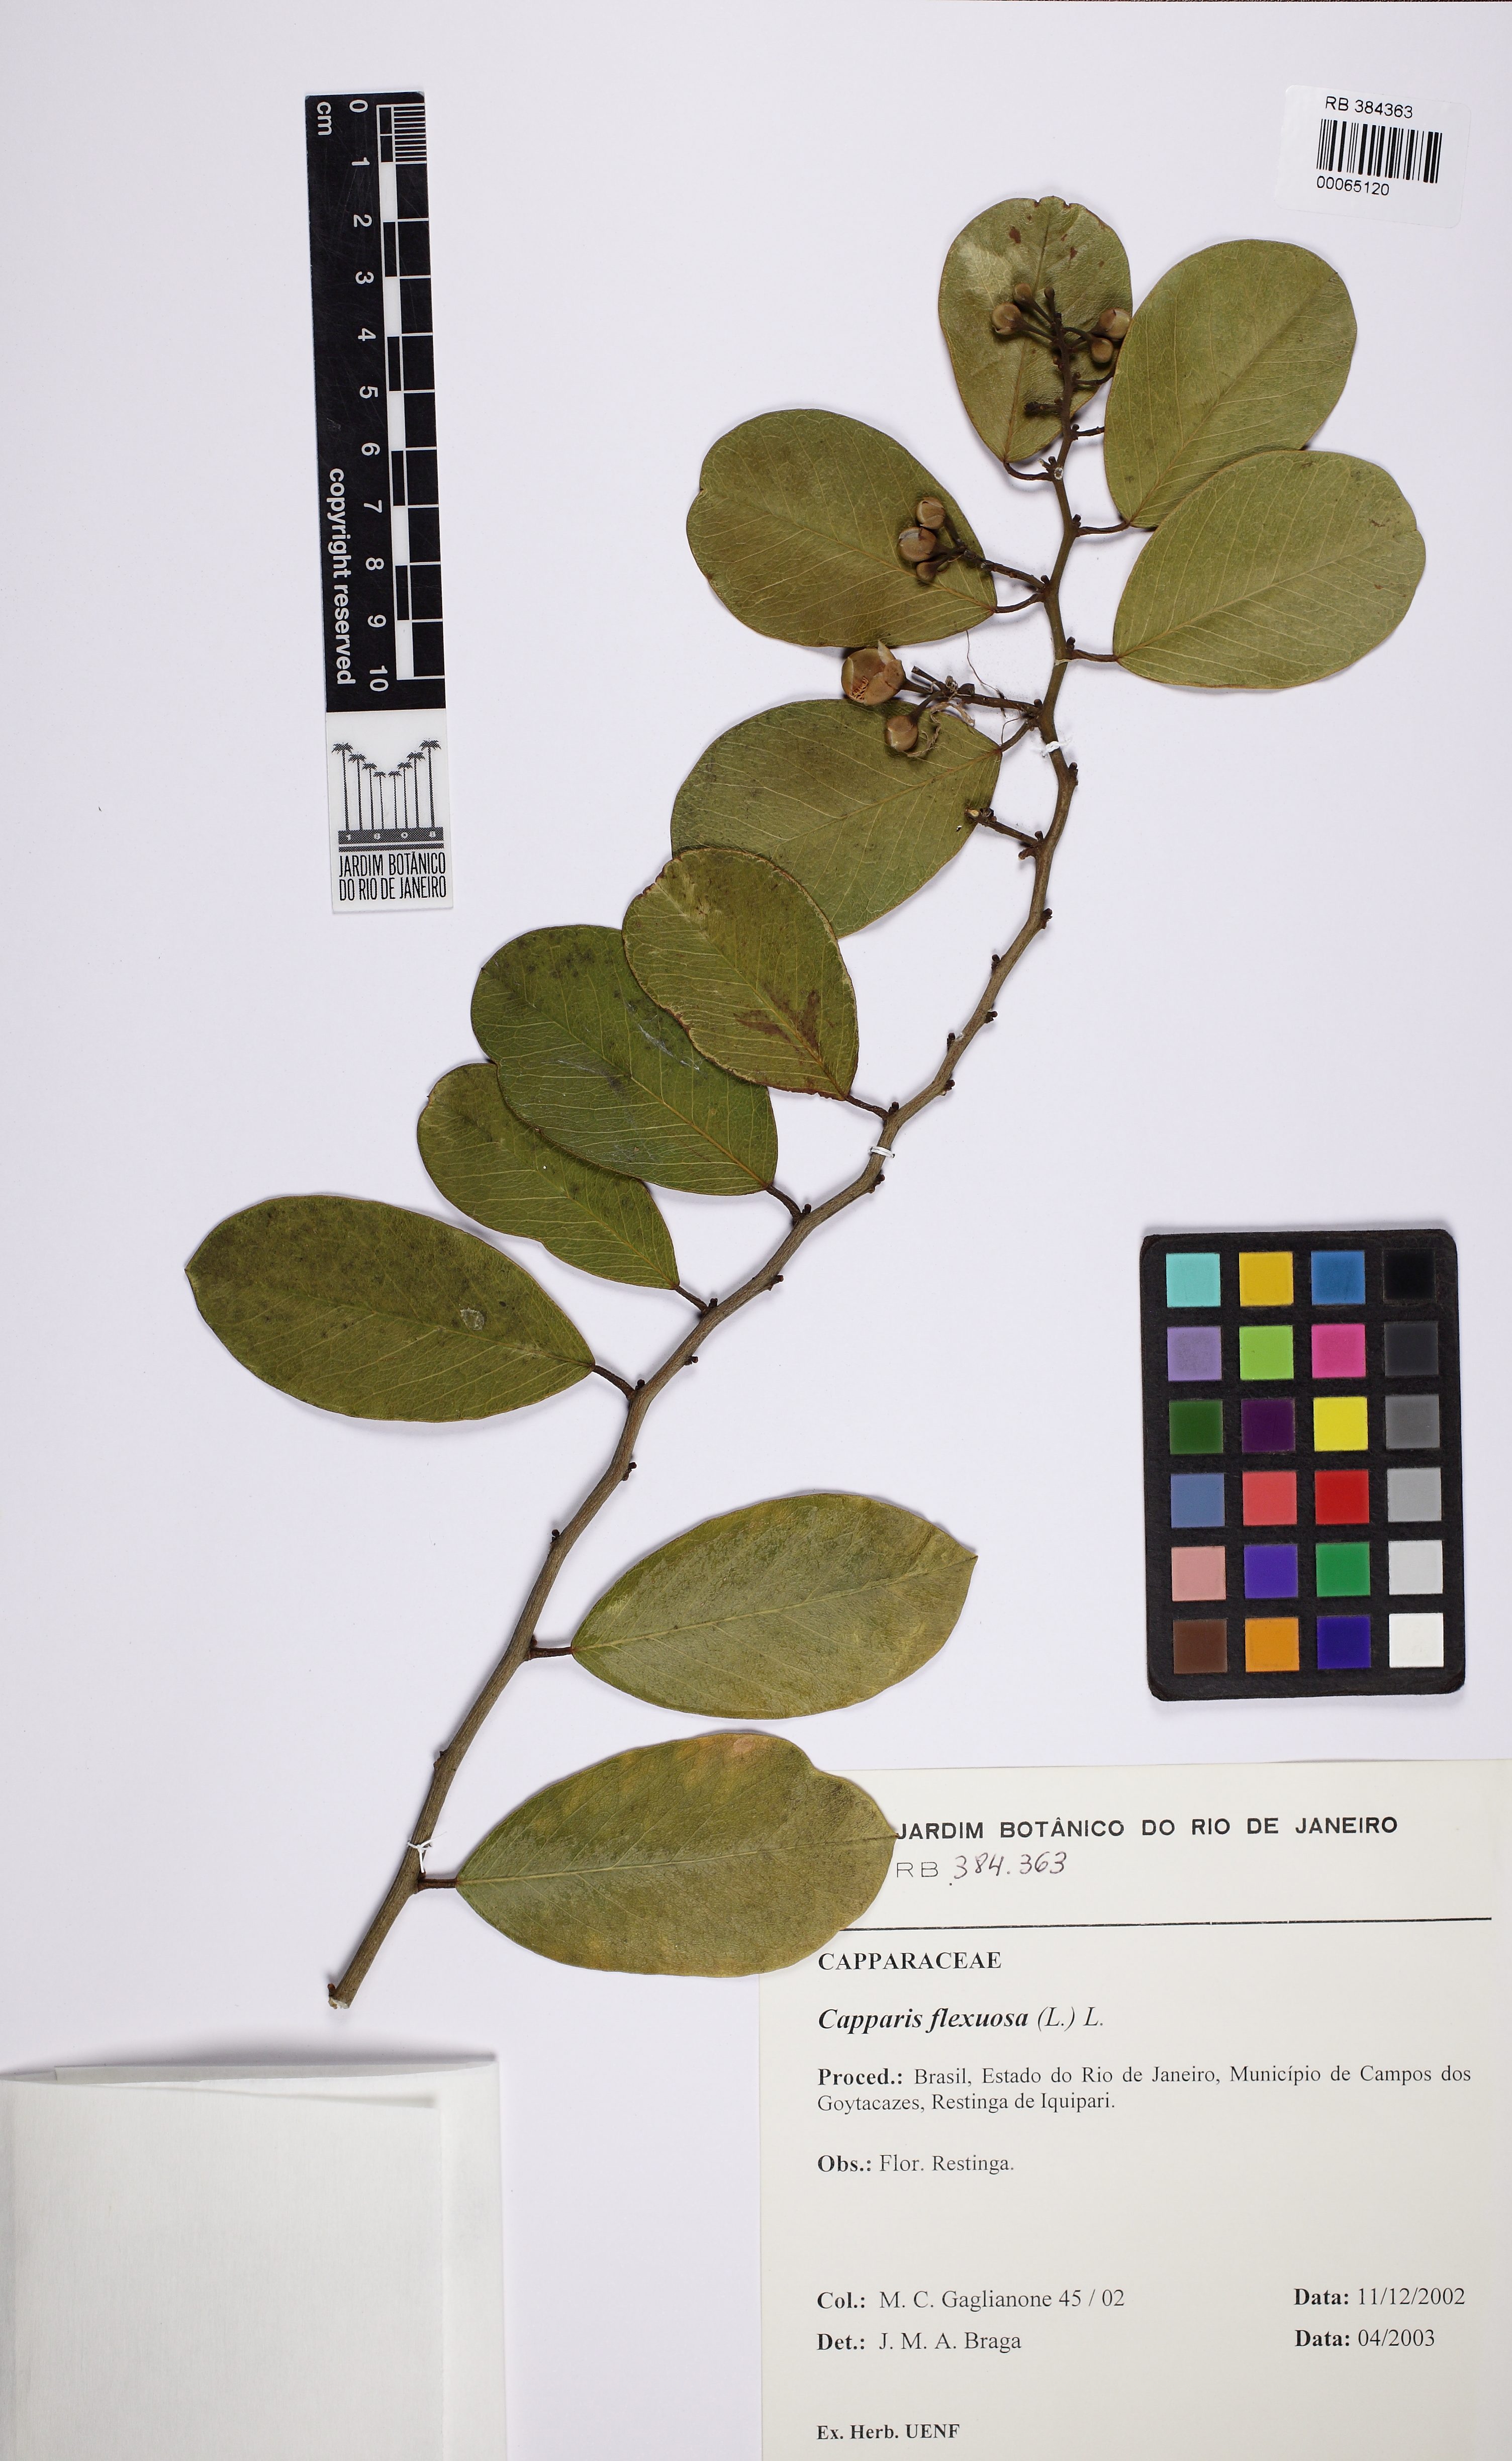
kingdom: Plantae
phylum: Tracheophyta
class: Magnoliopsida
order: Brassicales
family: Capparaceae
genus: Cynophalla
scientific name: Cynophalla flexuosa
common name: Capertree
